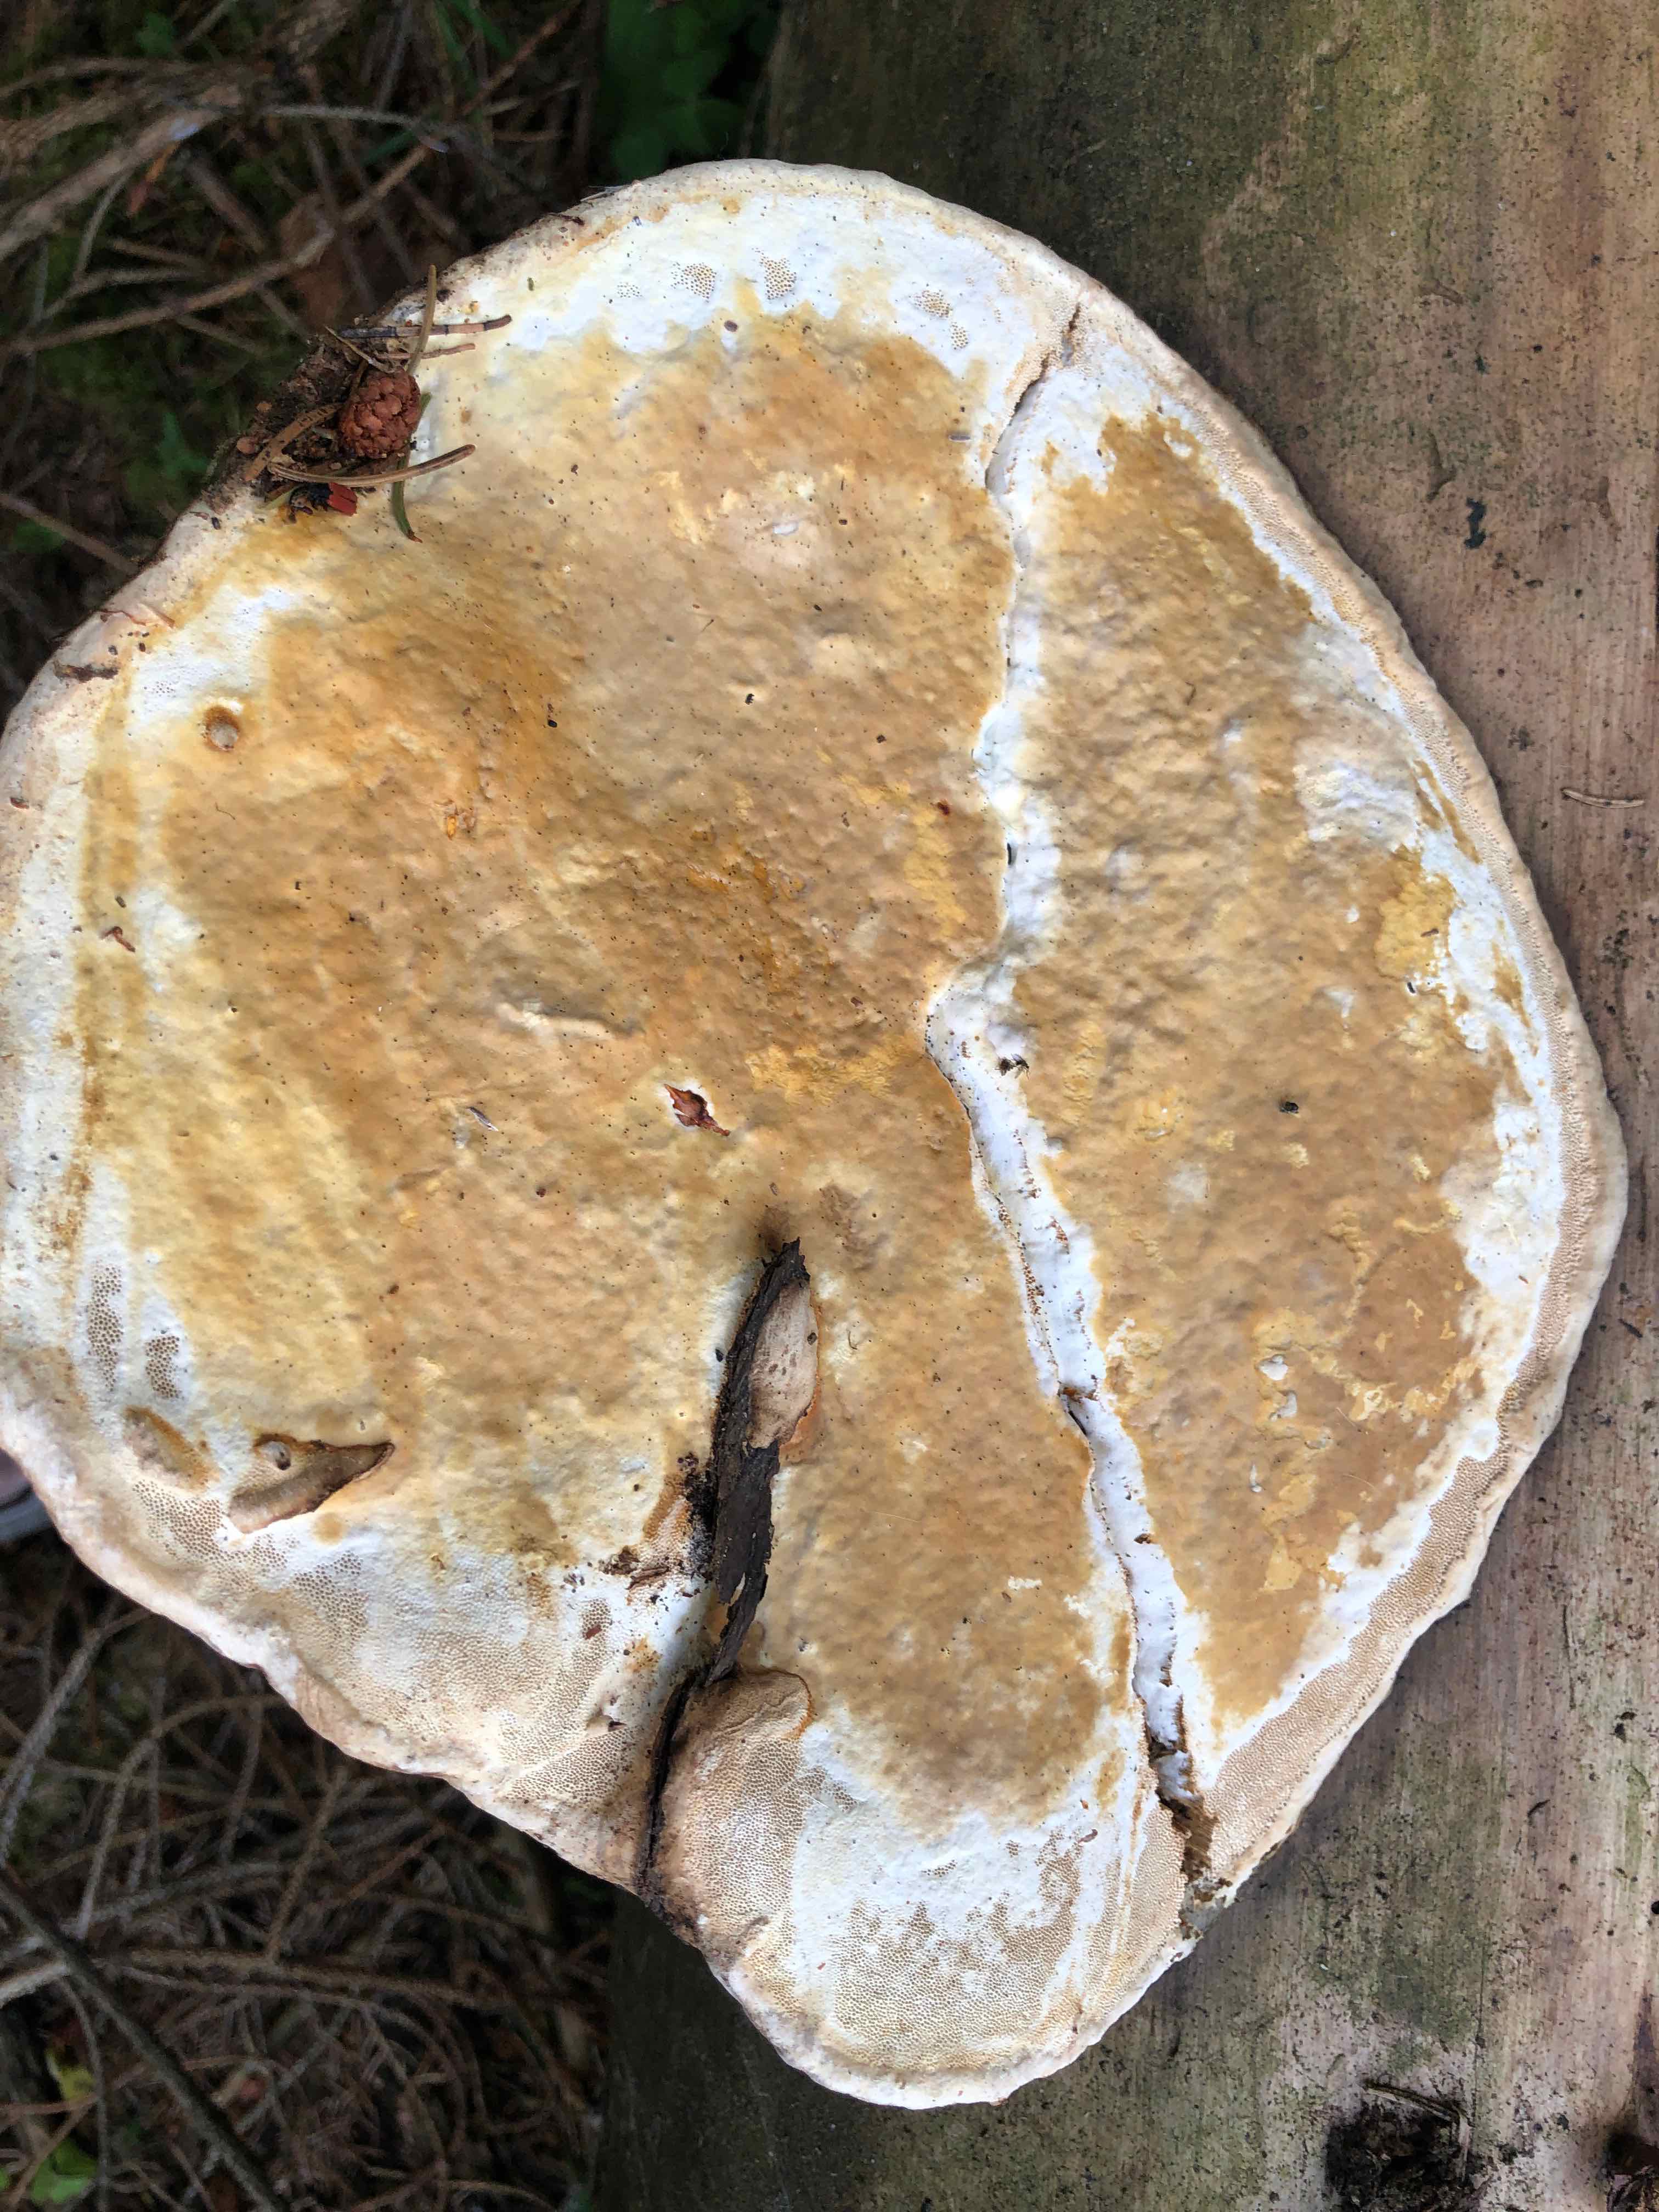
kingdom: Fungi
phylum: Basidiomycota
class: Agaricomycetes
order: Polyporales
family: Fomitopsidaceae
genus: Fomitopsis
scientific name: Fomitopsis pinicola
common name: randbæltet hovporesvamp
